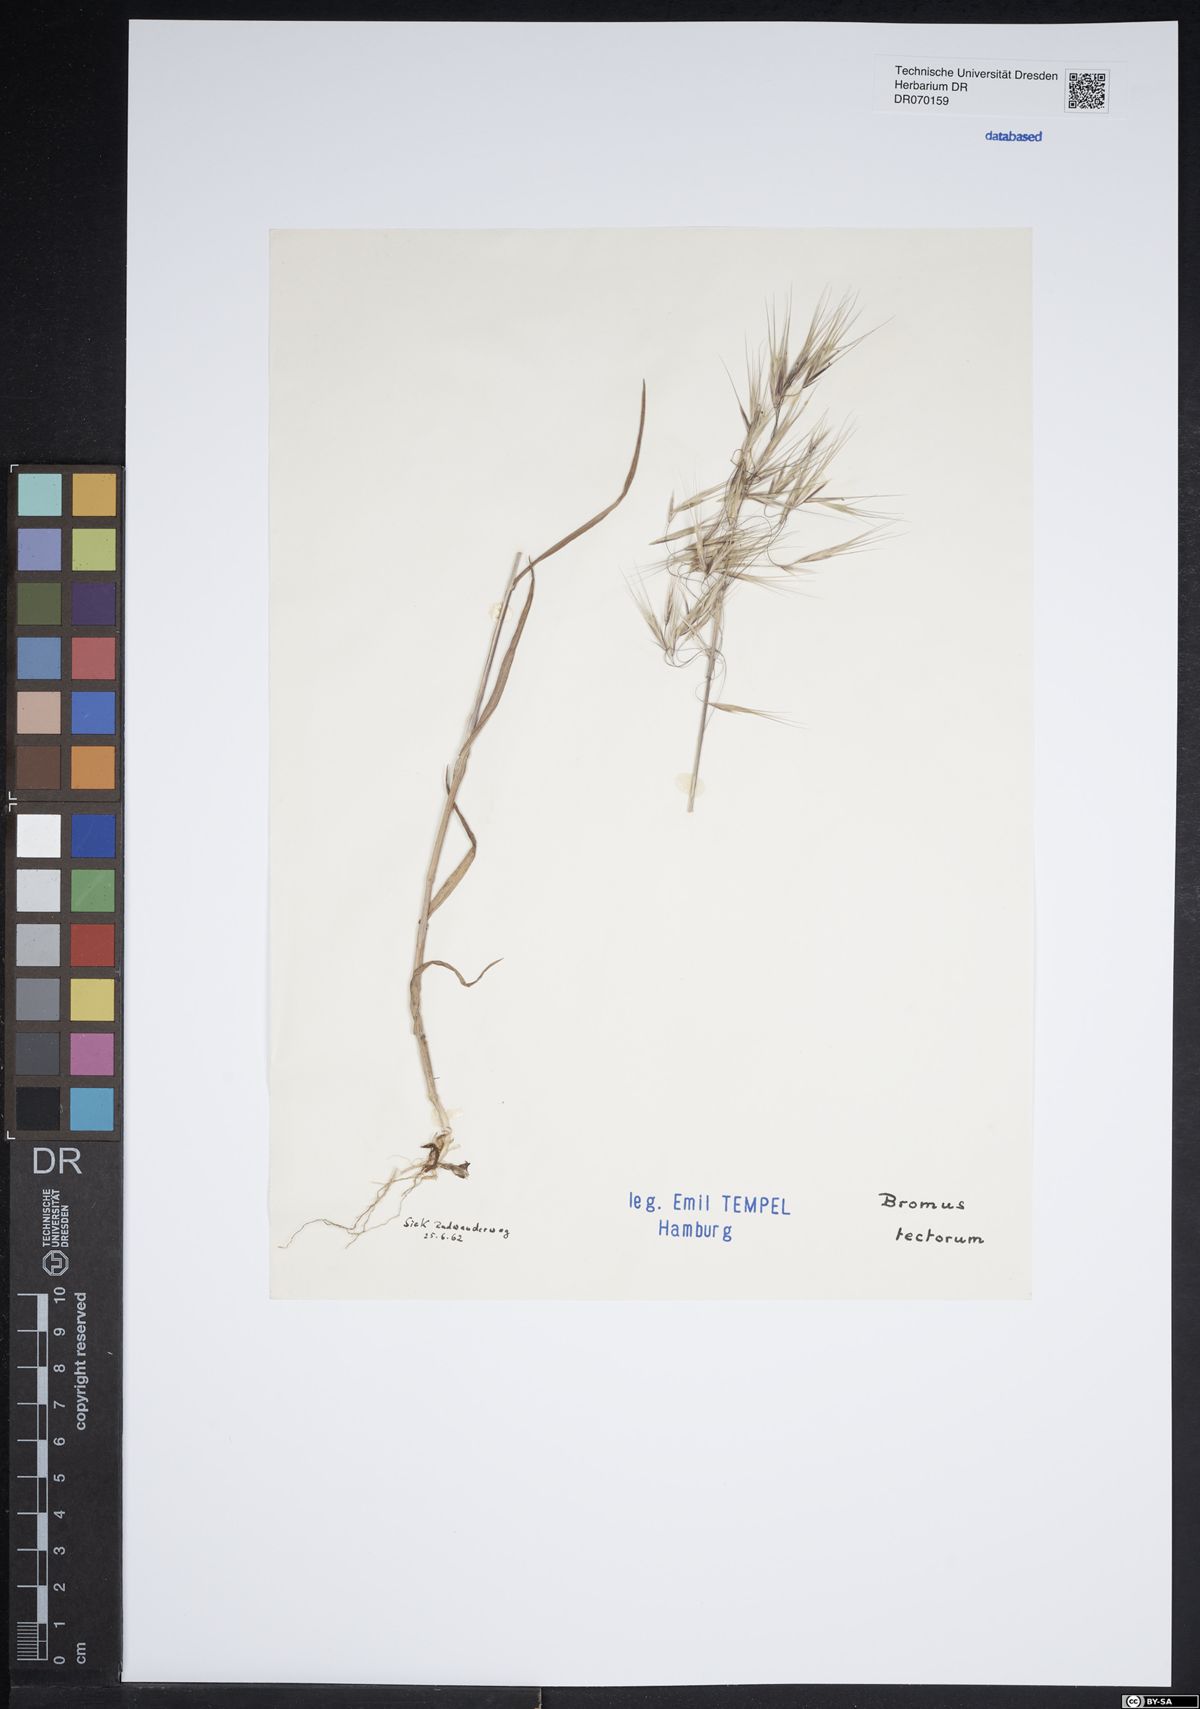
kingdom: Plantae
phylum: Tracheophyta
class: Liliopsida
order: Poales
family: Poaceae
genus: Bromus
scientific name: Bromus tectorum
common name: Cheatgrass
